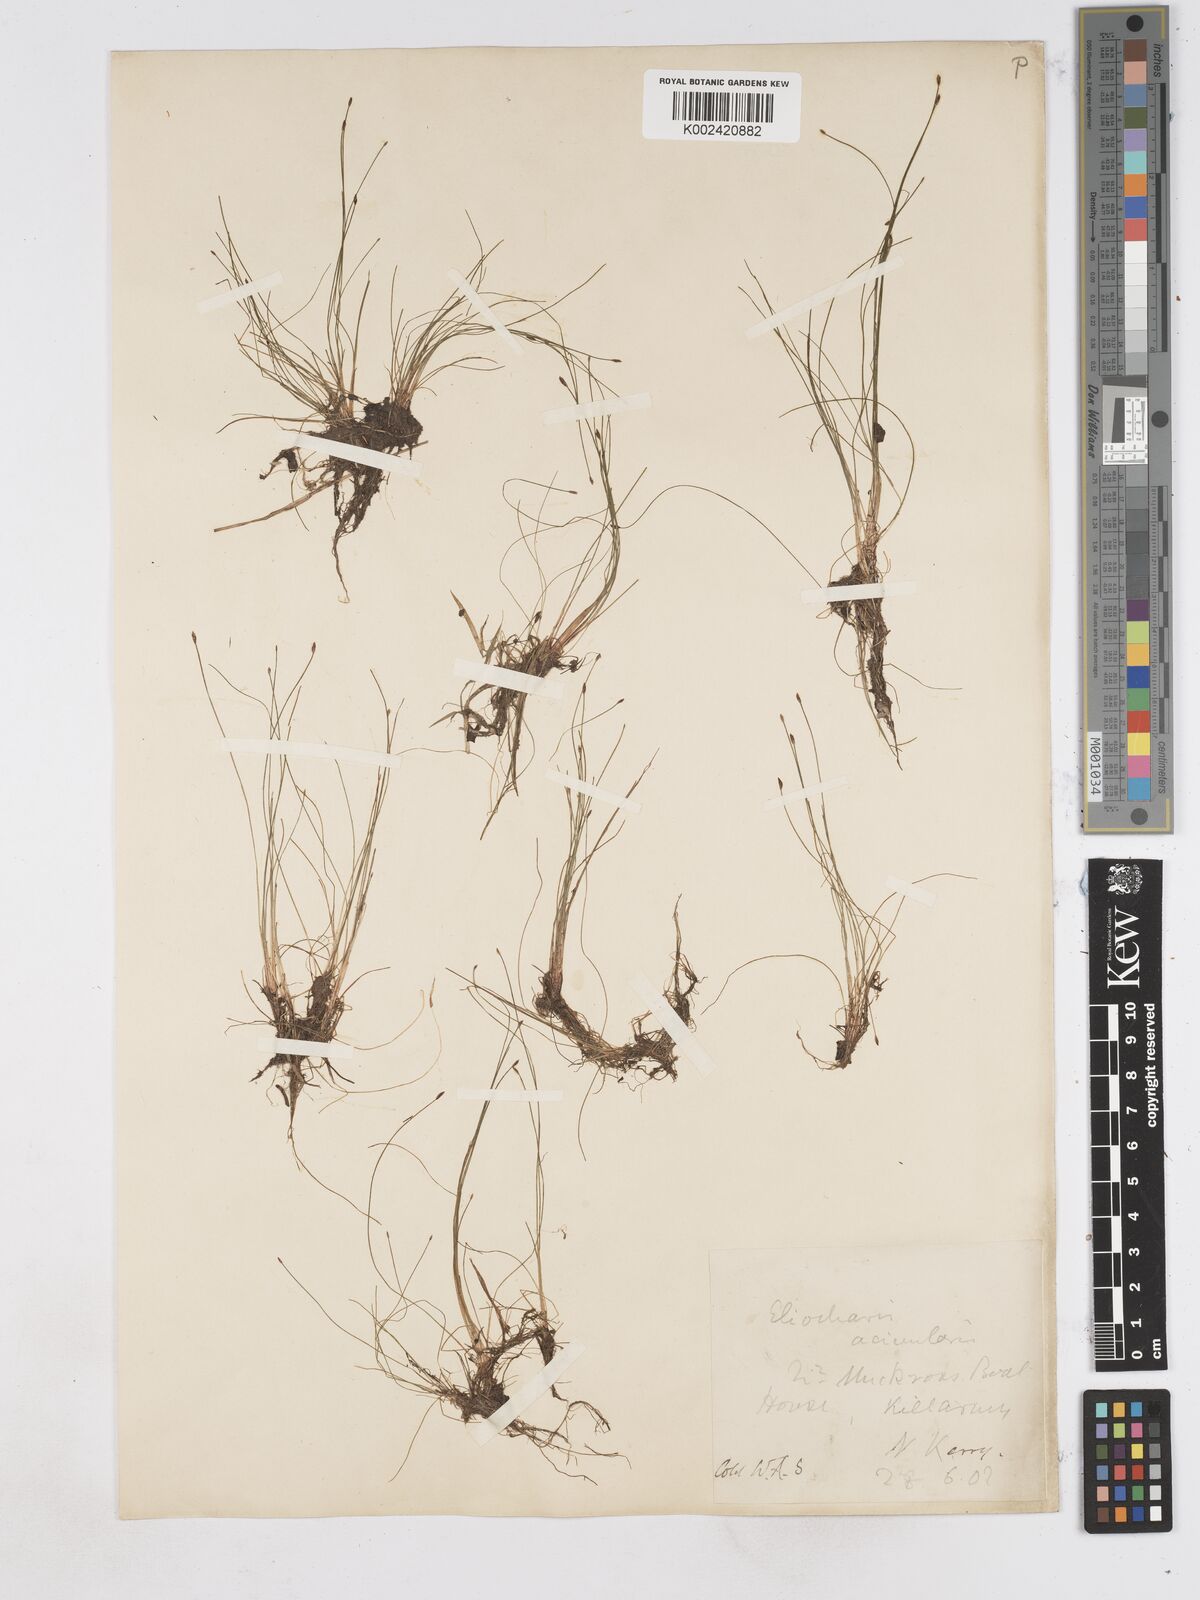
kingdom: Plantae
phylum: Tracheophyta
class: Liliopsida
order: Poales
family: Cyperaceae
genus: Eleocharis
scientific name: Eleocharis acicularis
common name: Needle spike-rush
